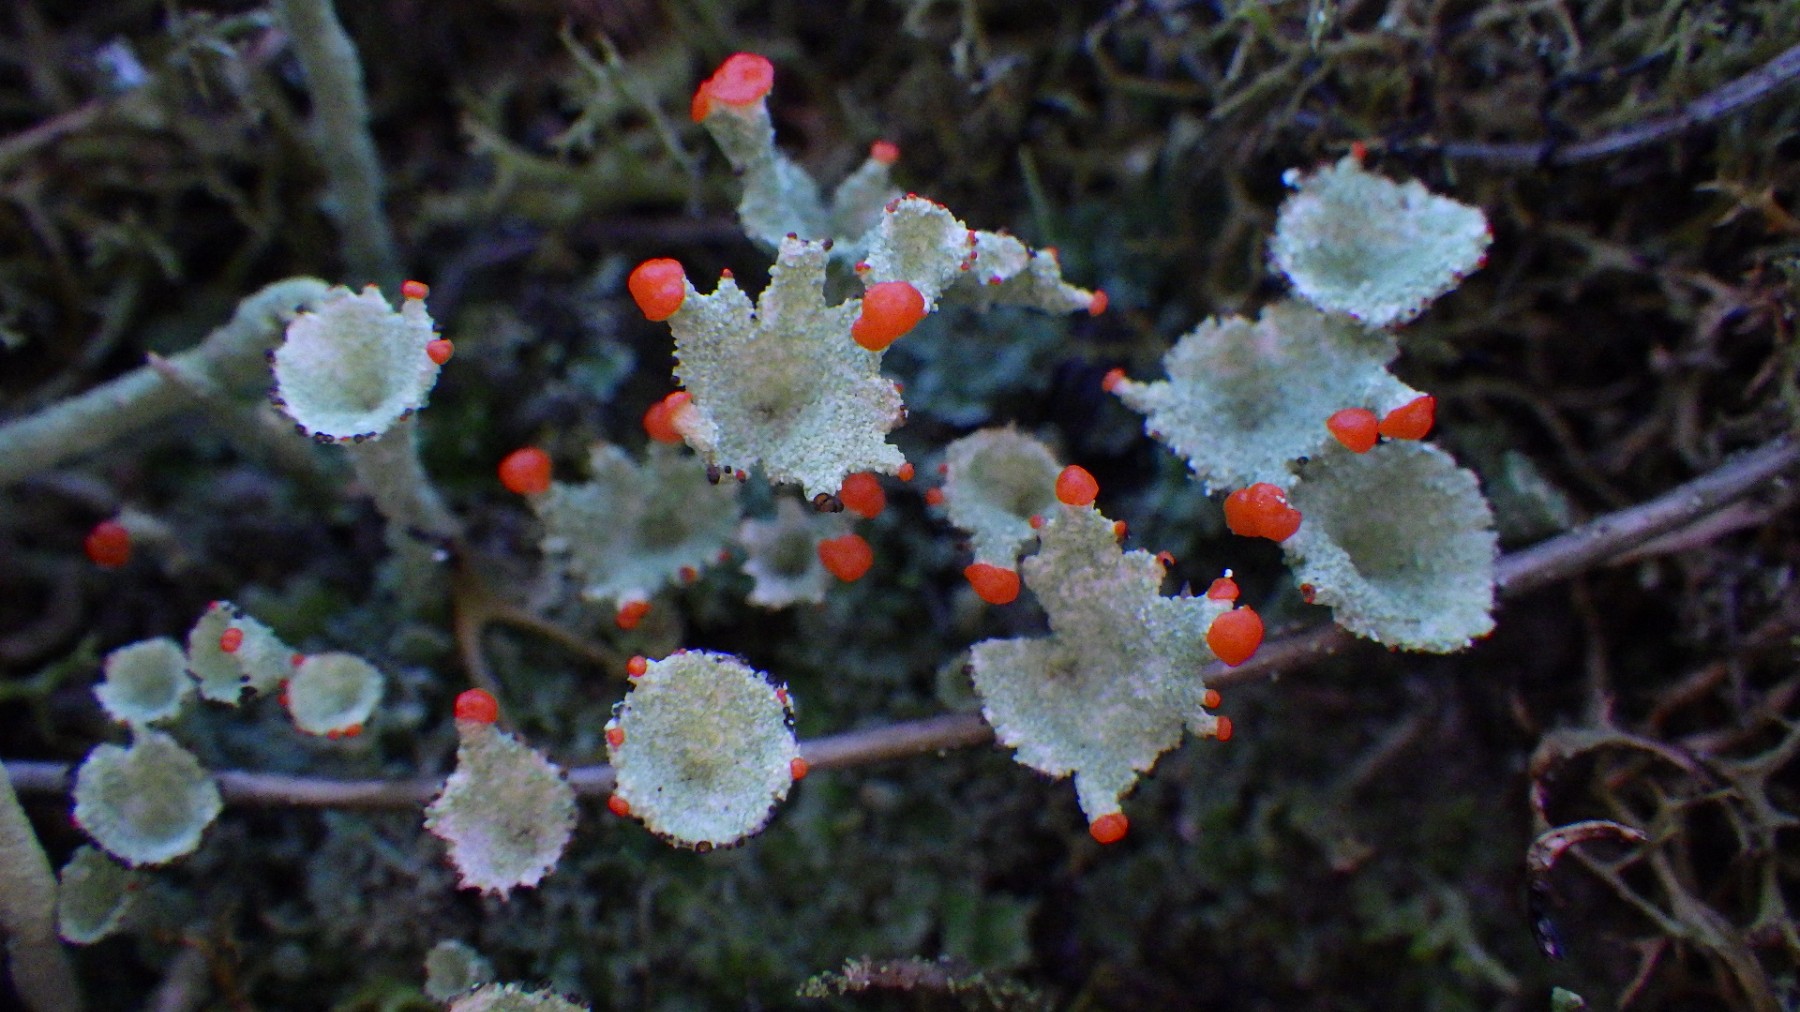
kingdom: Fungi
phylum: Ascomycota
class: Lecanoromycetes
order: Lecanorales
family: Cladoniaceae
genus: Cladonia
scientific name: Cladonia diversa
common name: rød bægerlav
